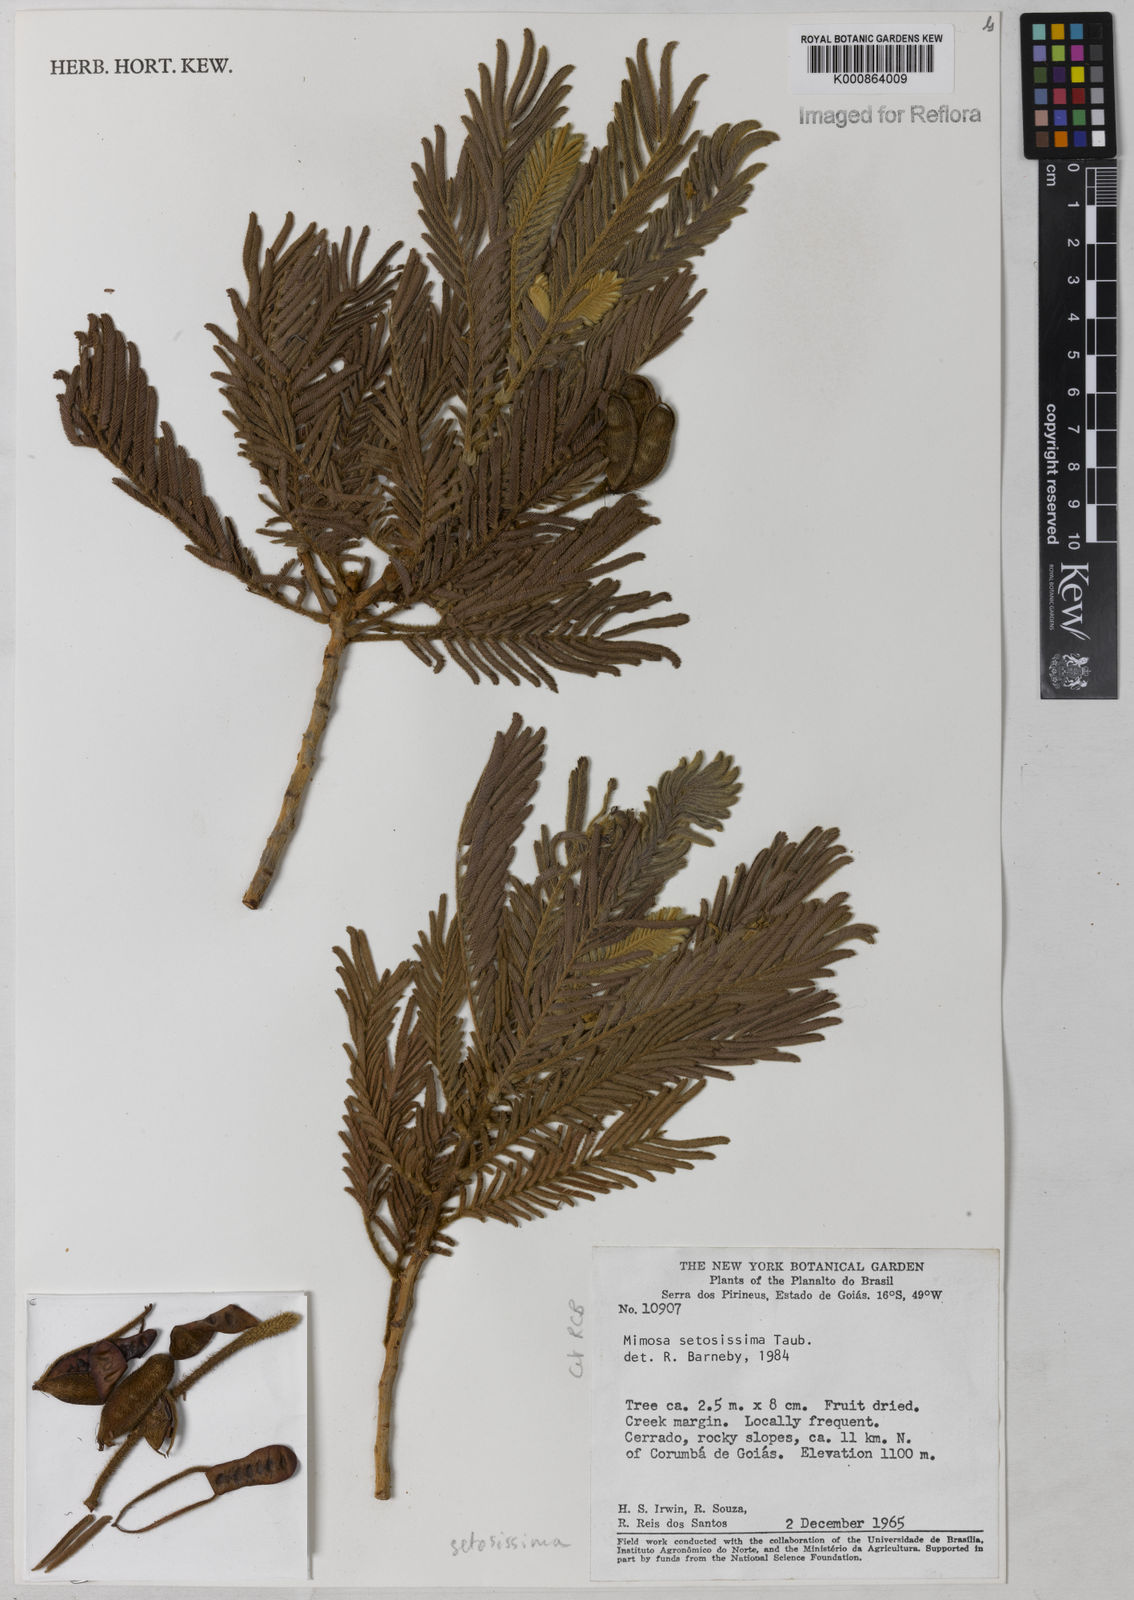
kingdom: Plantae
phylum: Tracheophyta
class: Magnoliopsida
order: Fabales
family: Fabaceae
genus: Mimosa
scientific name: Mimosa setosissima
